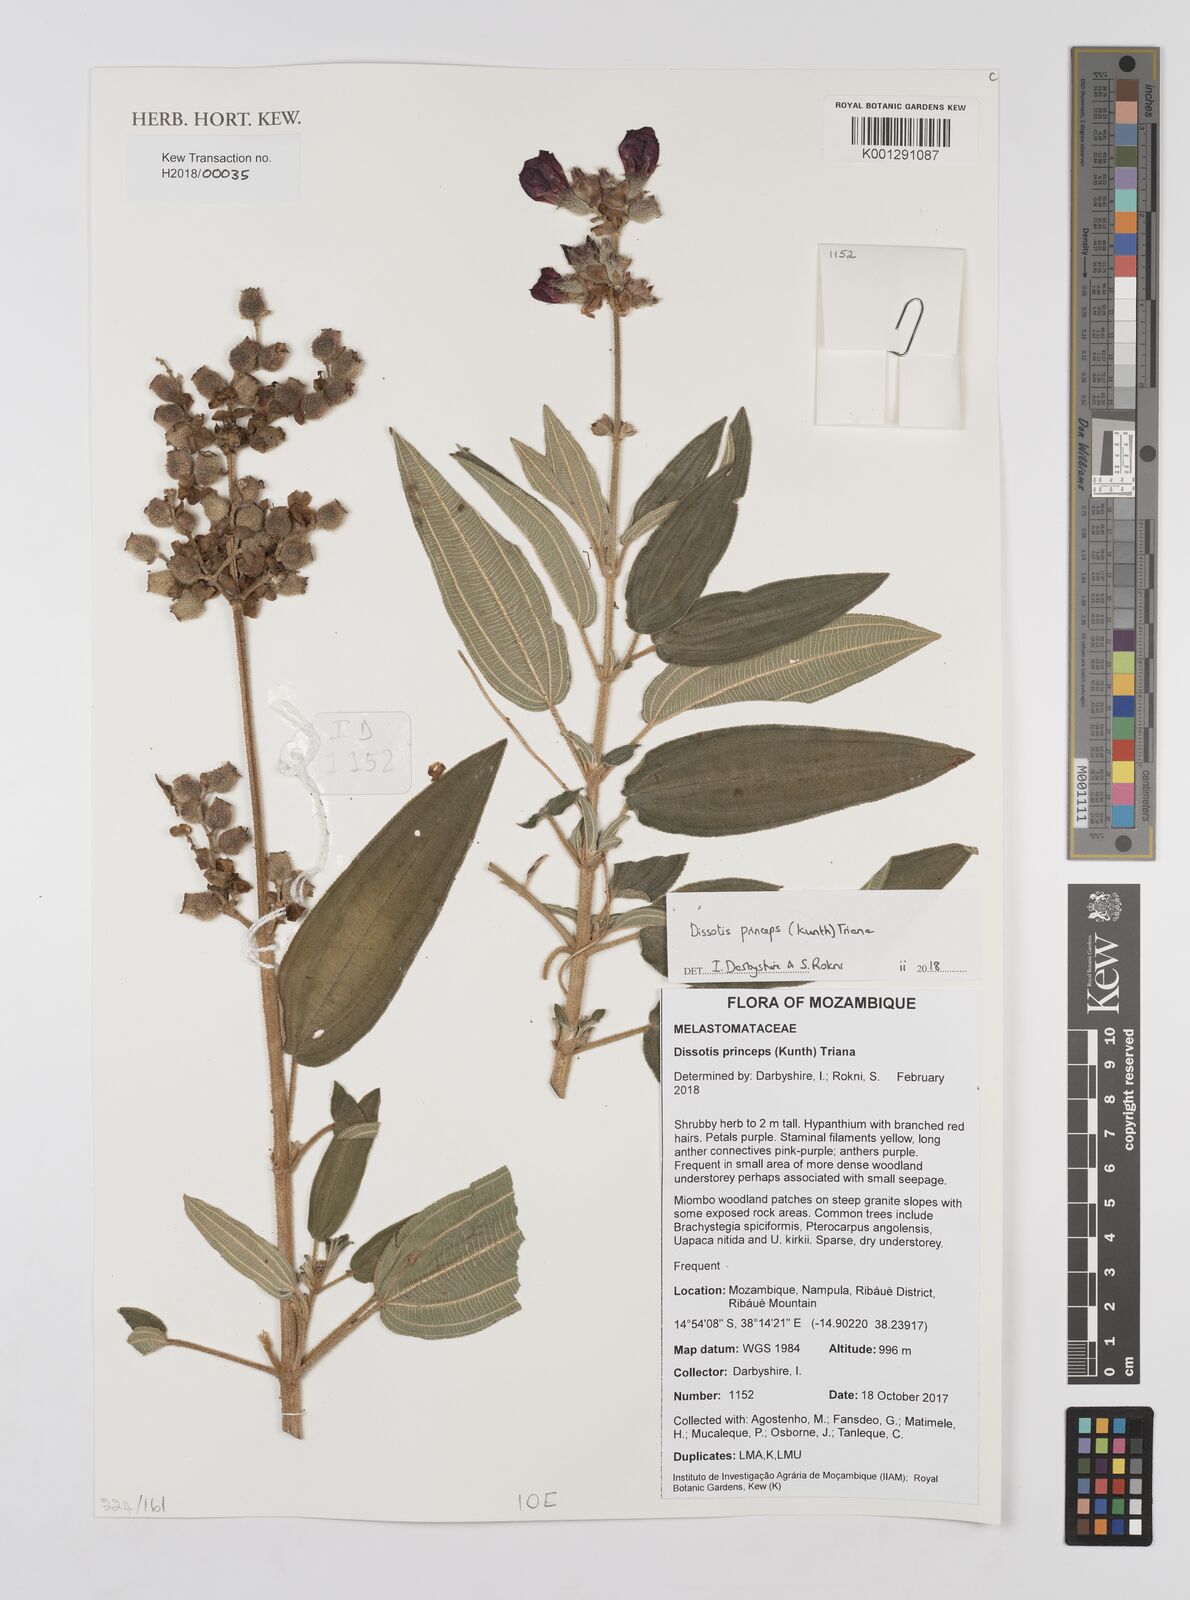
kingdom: Plantae
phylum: Tracheophyta
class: Magnoliopsida
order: Myrtales
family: Melastomataceae
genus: Rosettea
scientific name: Rosettea princeps
